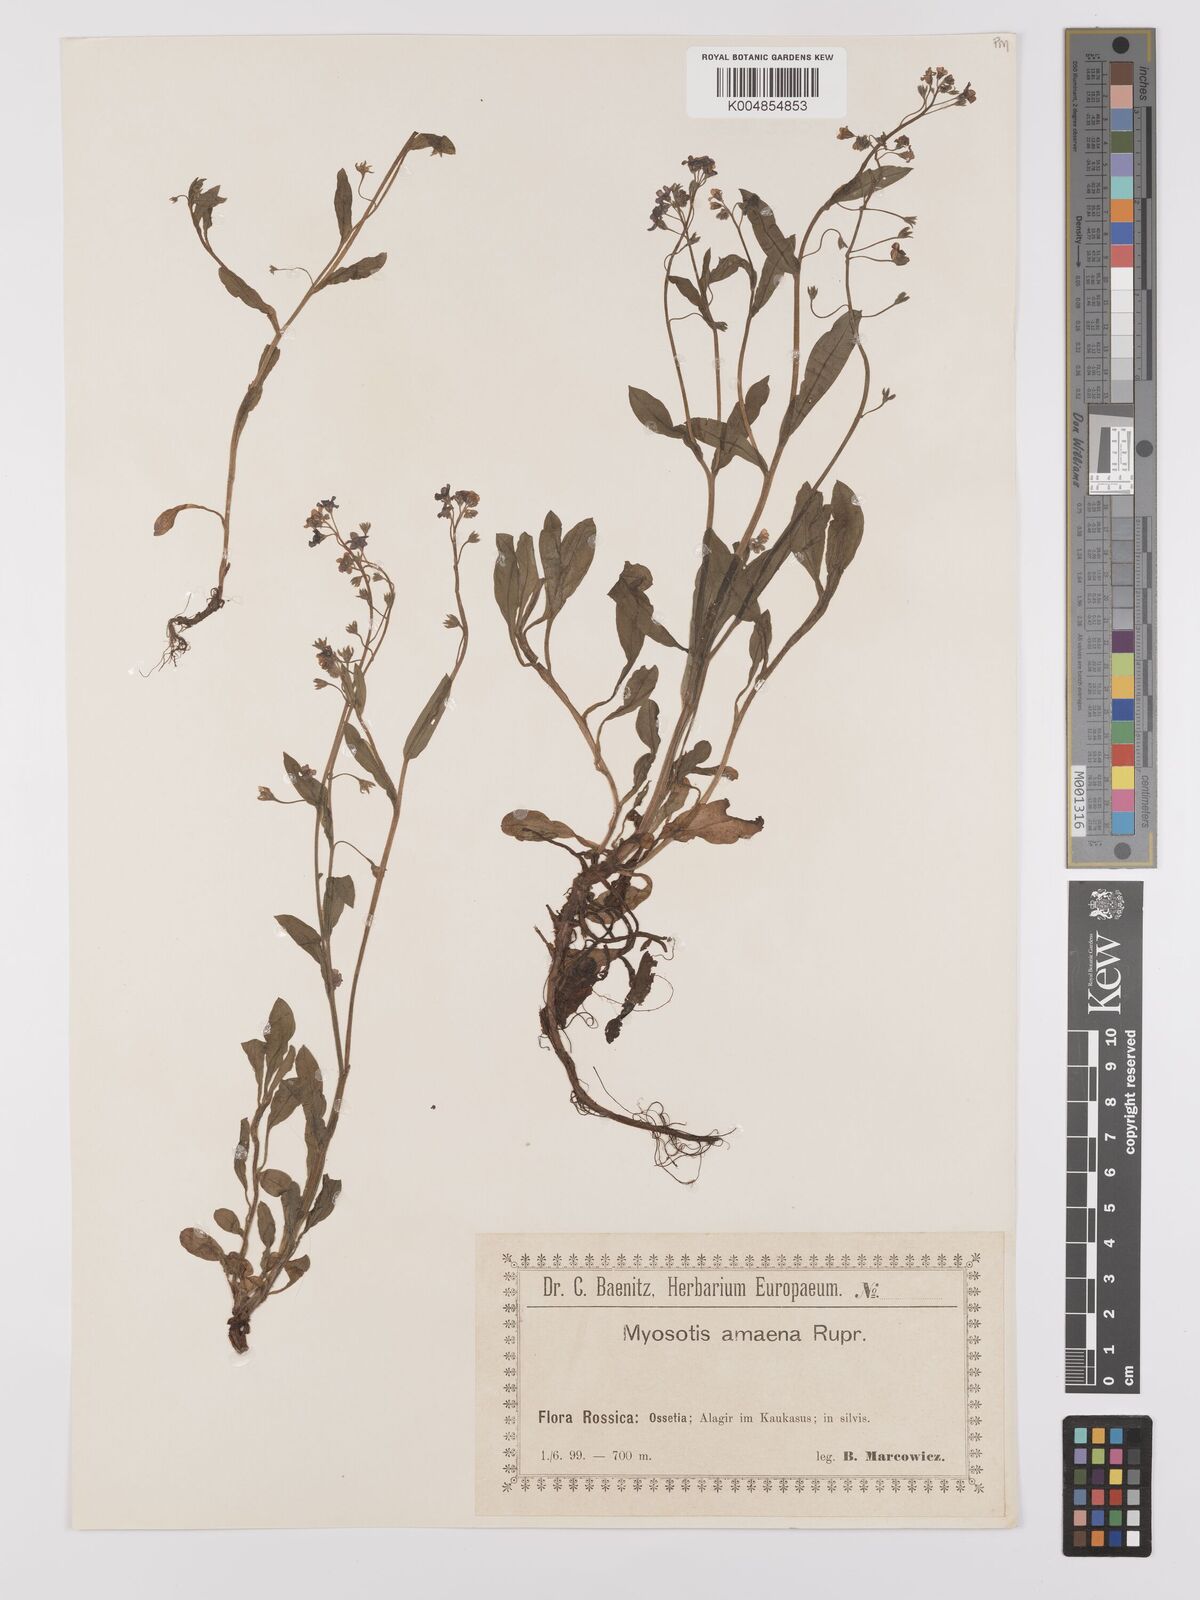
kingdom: Plantae
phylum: Tracheophyta
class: Magnoliopsida
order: Boraginales
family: Boraginaceae
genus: Myosotis
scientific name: Myosotis
